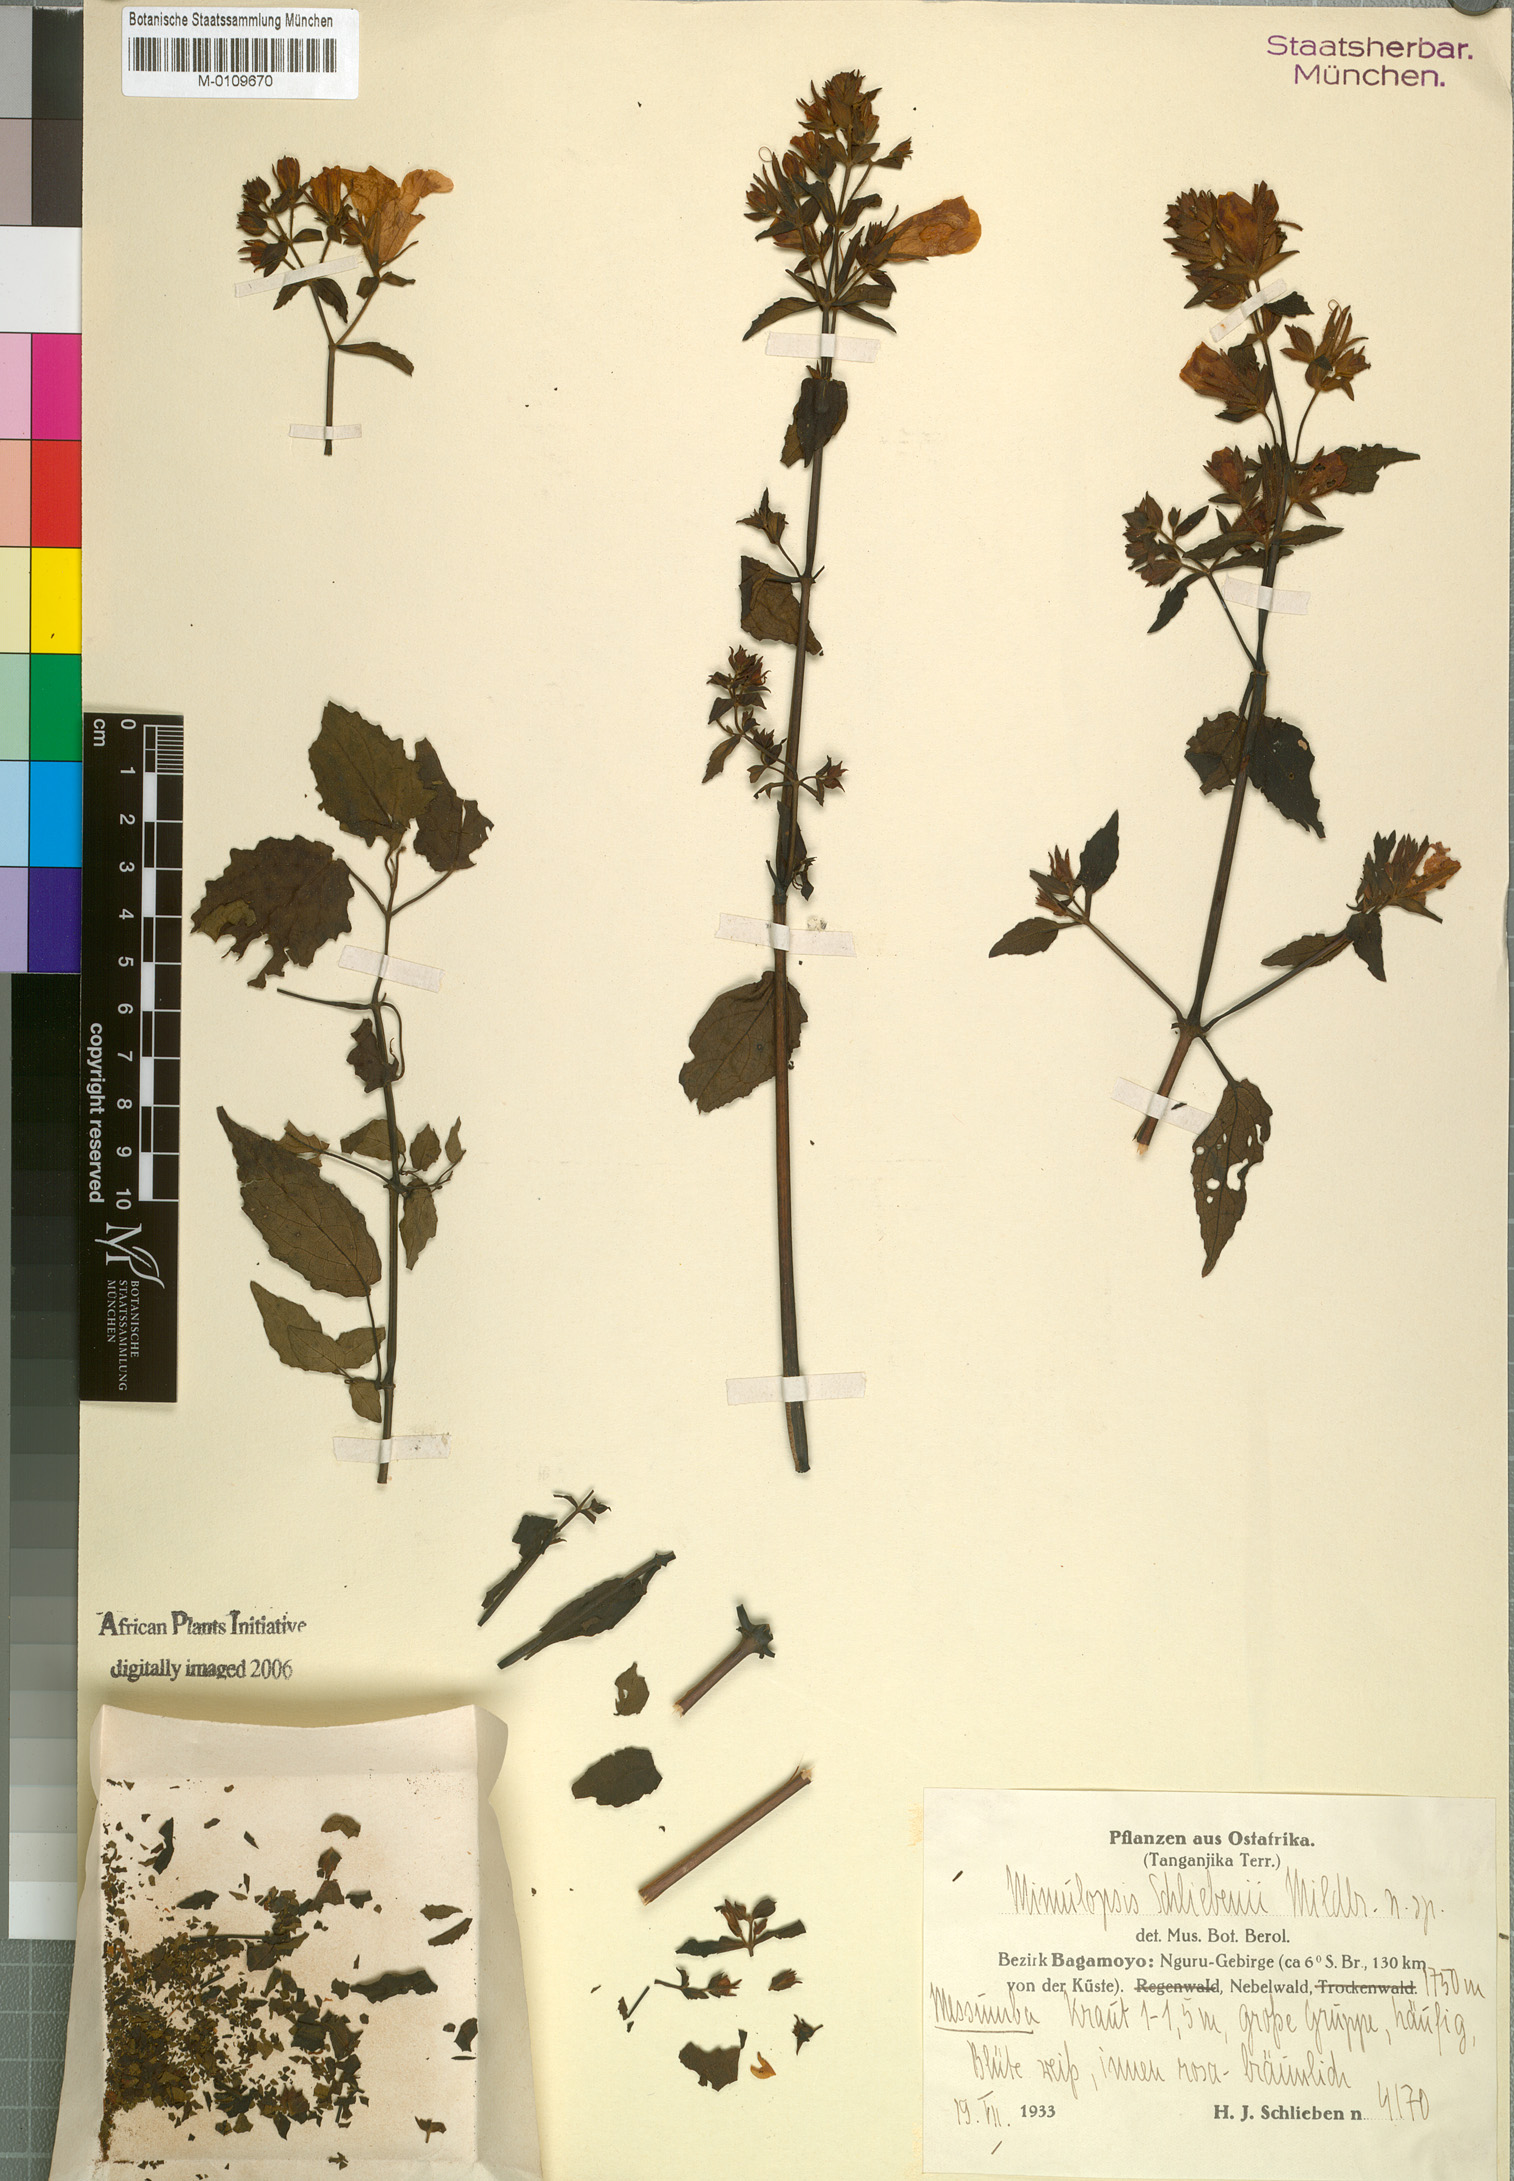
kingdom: Plantae
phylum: Tracheophyta
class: Magnoliopsida
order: Lamiales
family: Acanthaceae
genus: Mimulopsis
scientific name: Mimulopsis schliebenii
